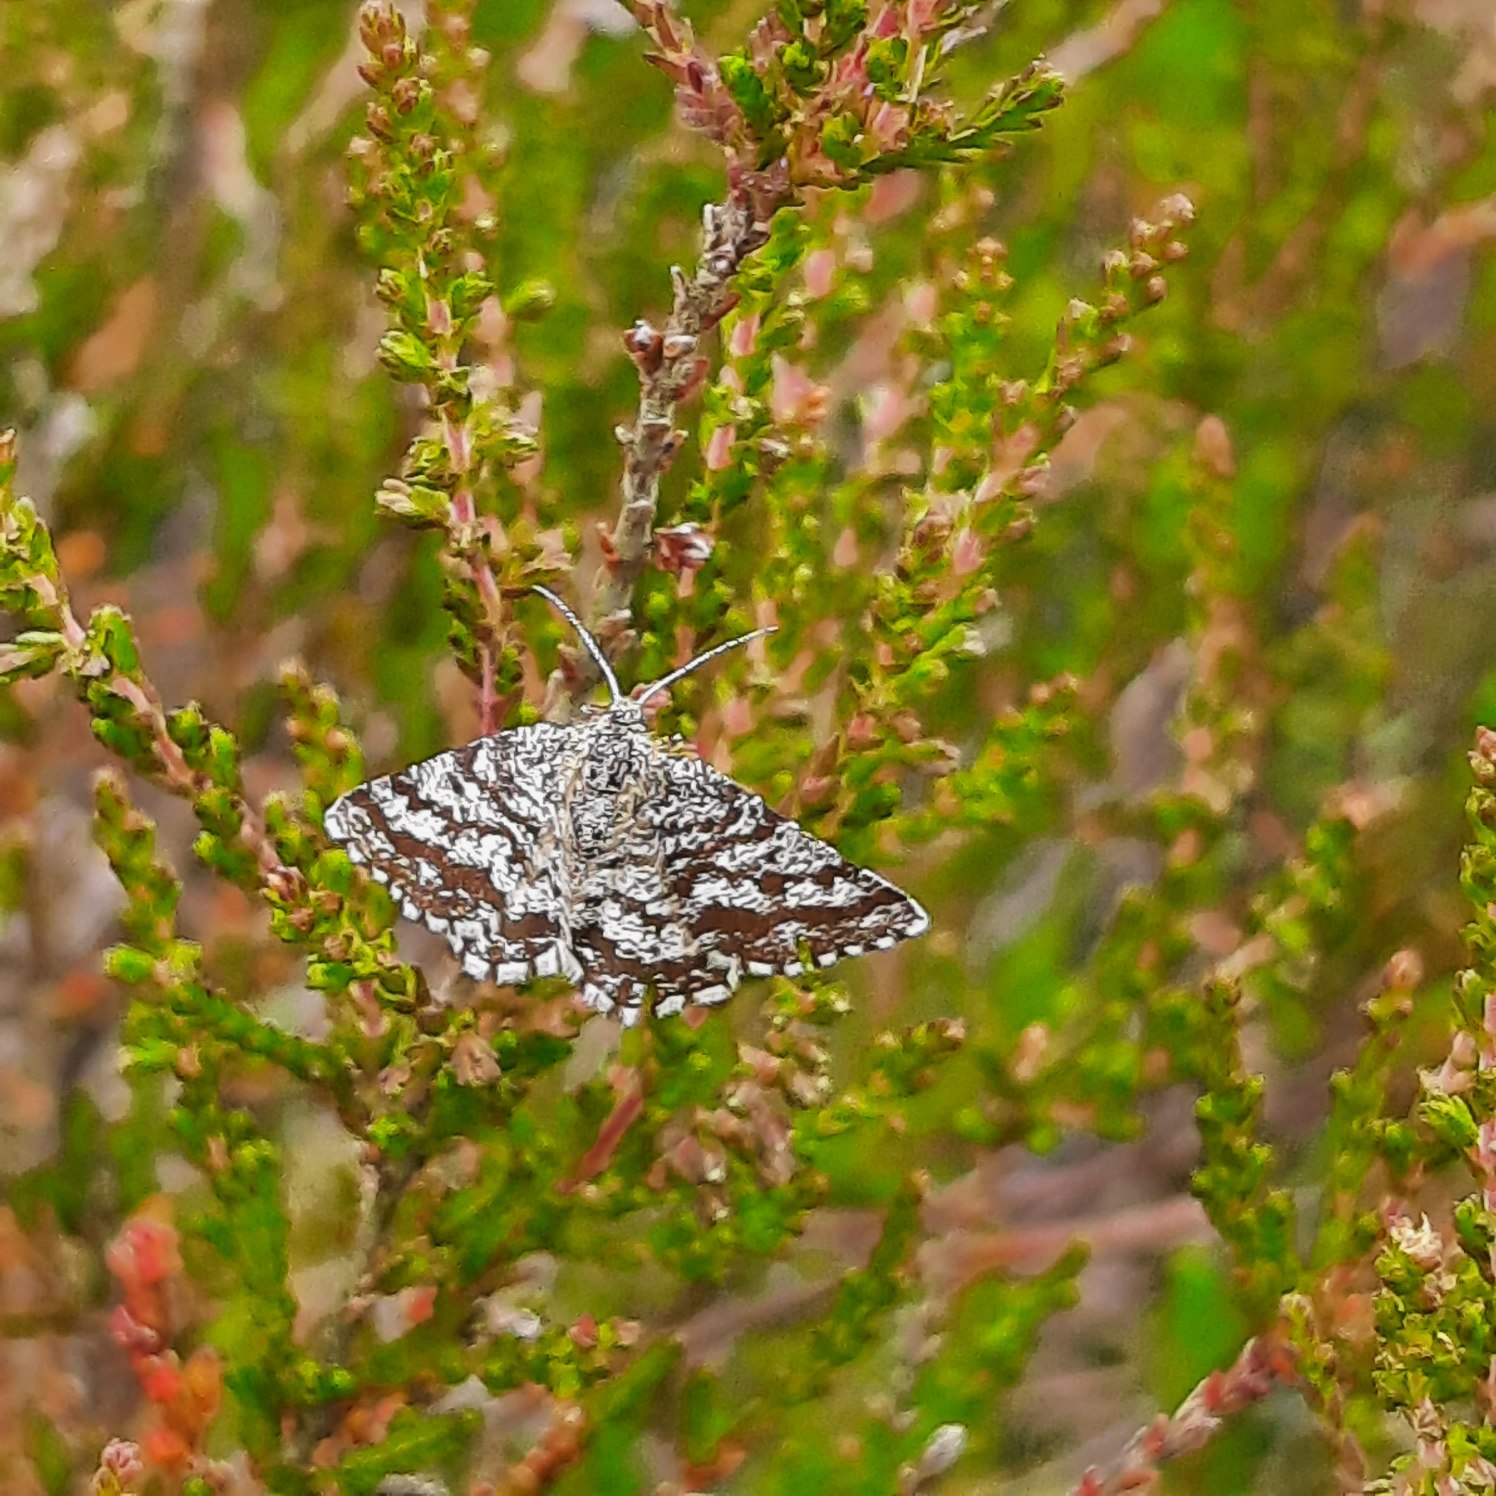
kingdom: Animalia
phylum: Arthropoda
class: Insecta
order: Lepidoptera
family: Geometridae
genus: Ematurga
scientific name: Ematurga atomaria
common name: Lyngmåler
